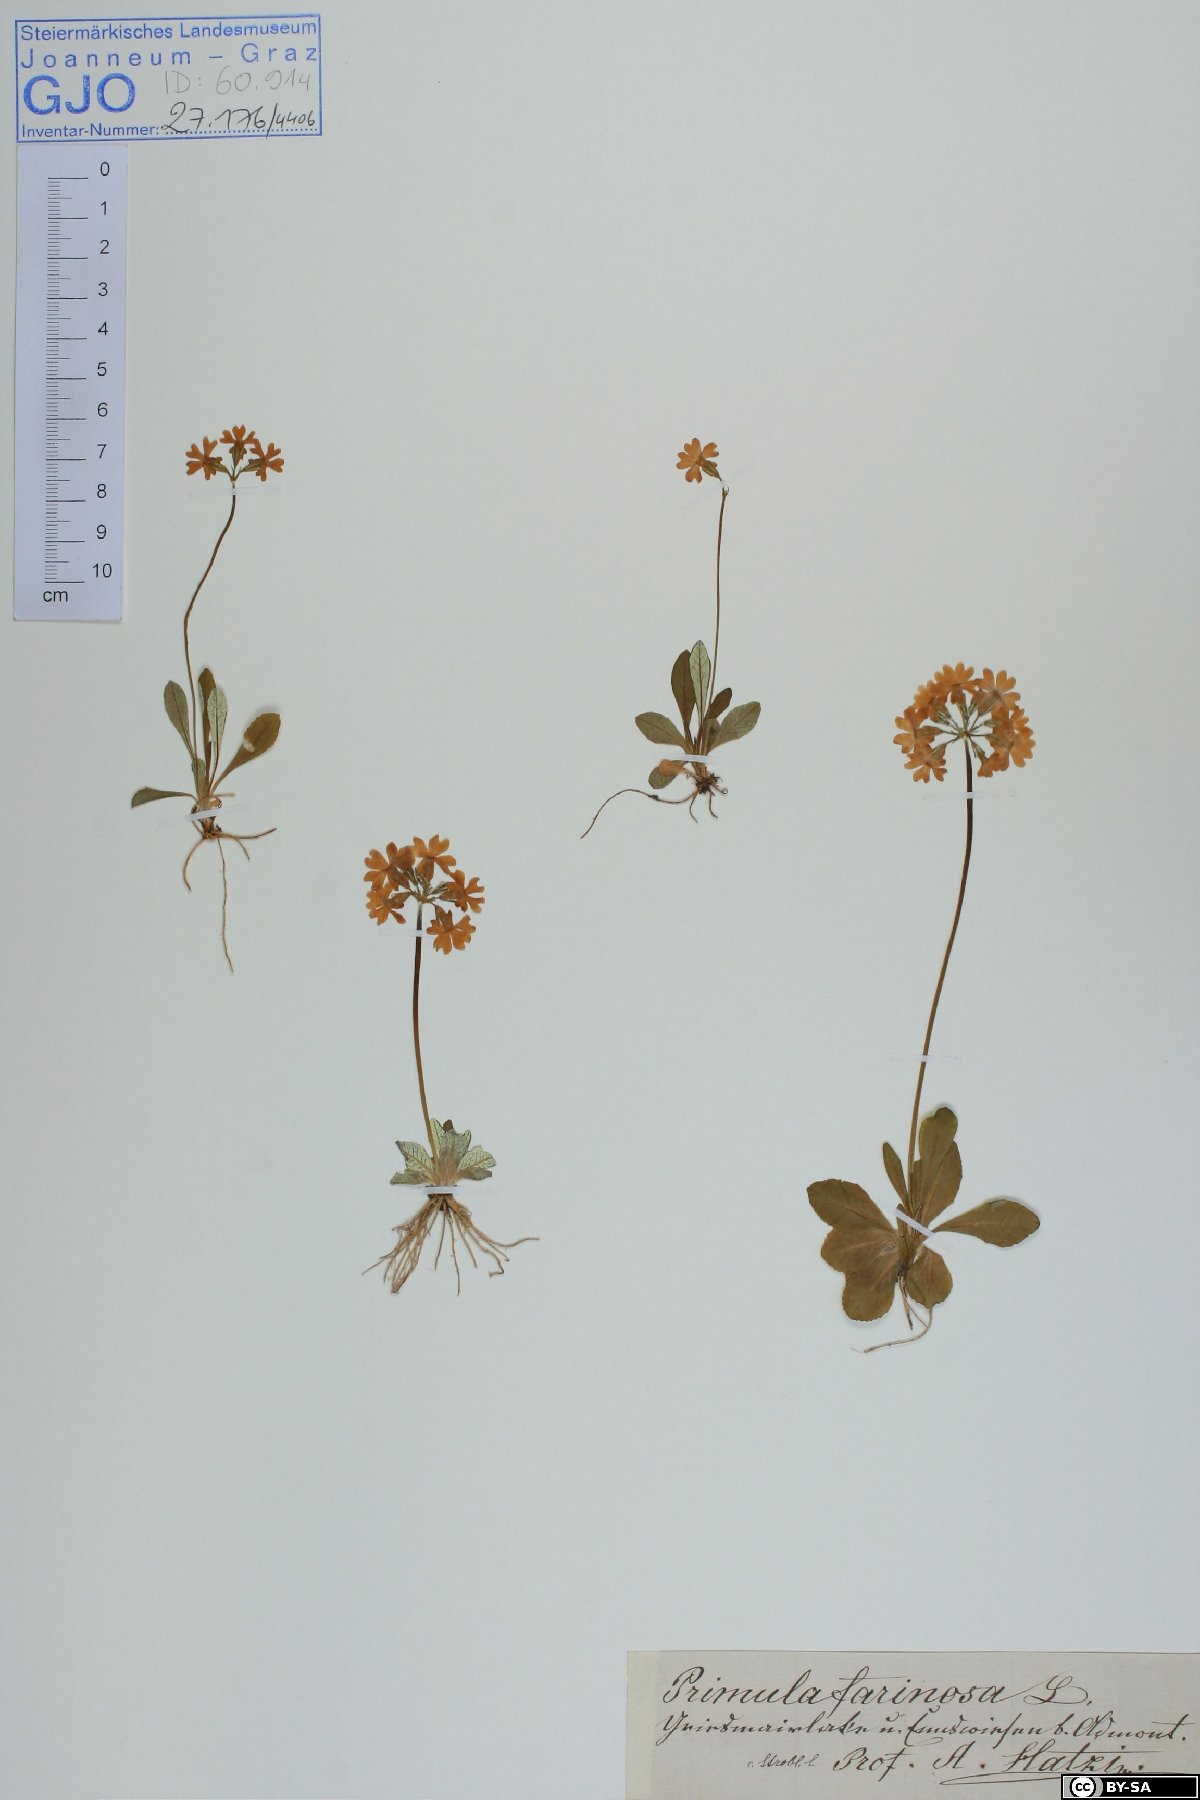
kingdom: Plantae
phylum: Tracheophyta
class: Magnoliopsida
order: Ericales
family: Primulaceae
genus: Primula
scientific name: Primula farinosa
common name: Bird's-eye primrose
